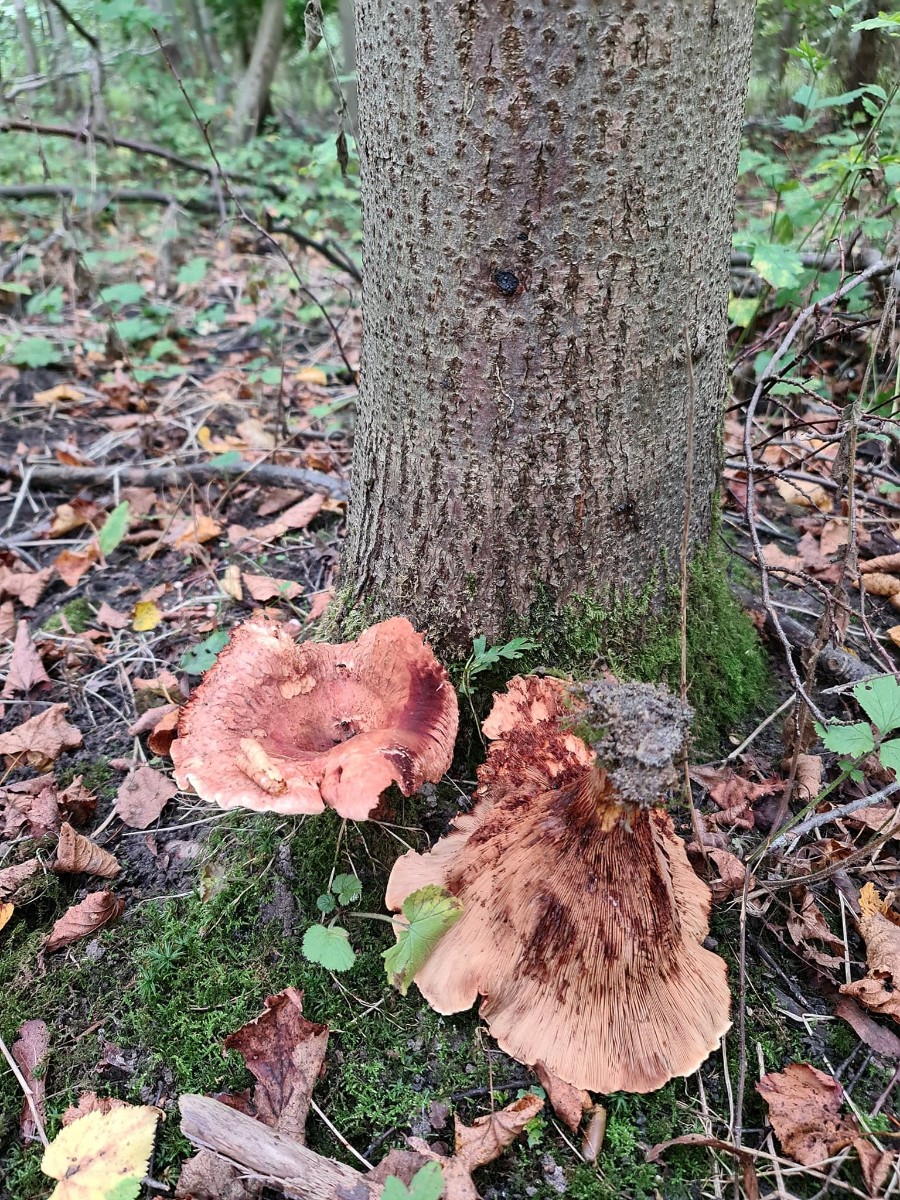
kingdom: Fungi
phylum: Basidiomycota
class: Agaricomycetes
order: Boletales
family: Paxillaceae
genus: Paxillus
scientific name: Paxillus
